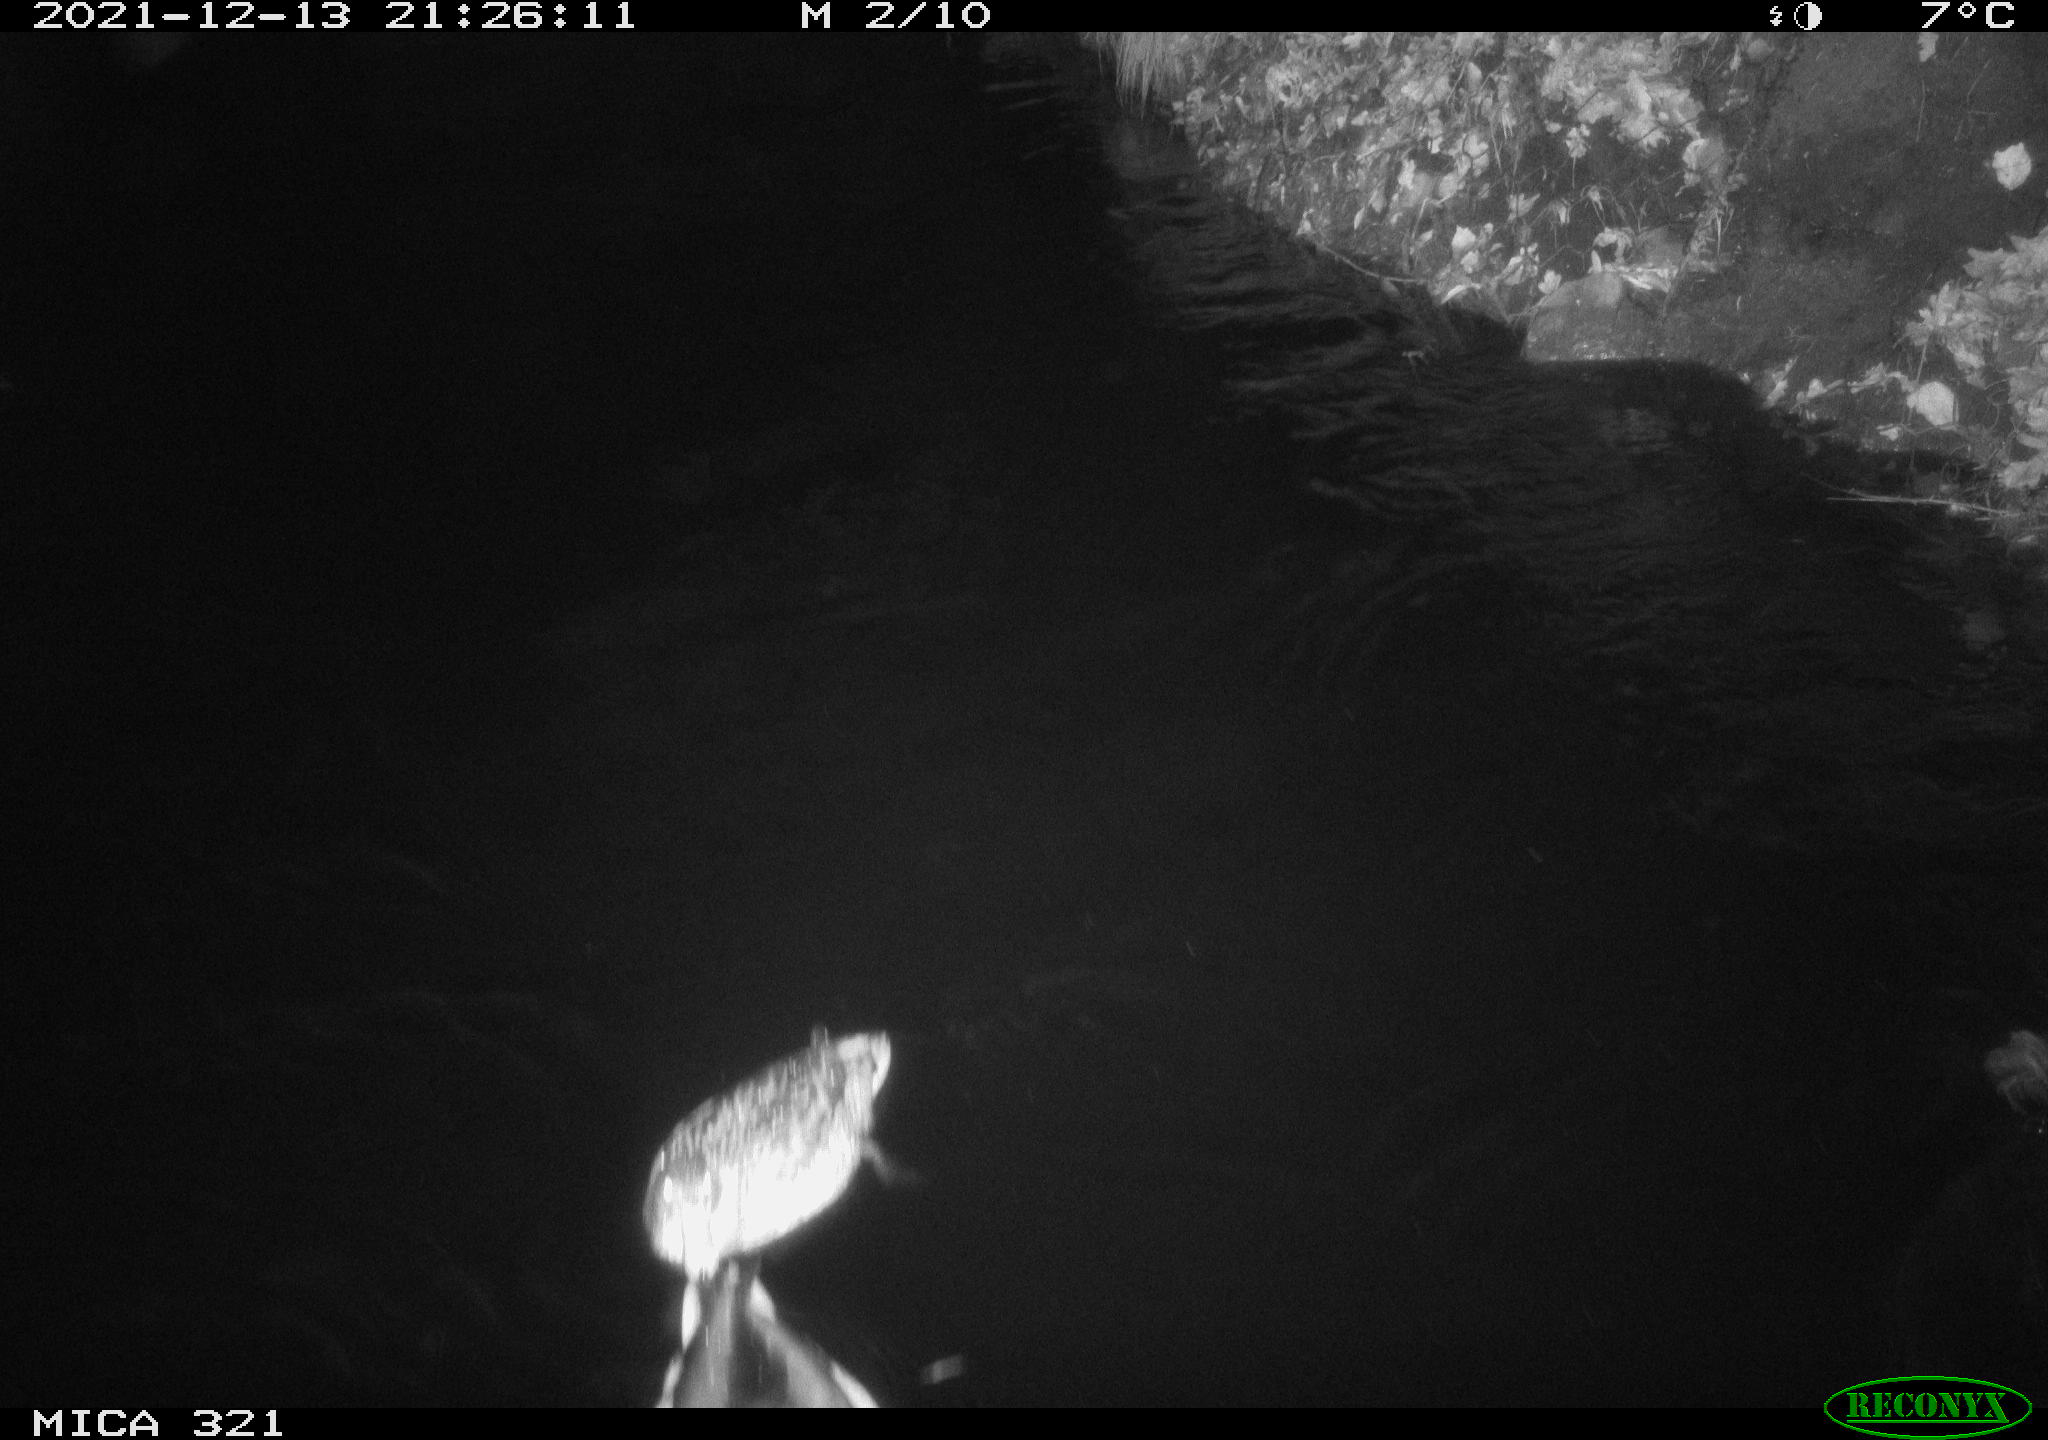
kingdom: Animalia
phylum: Chordata
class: Aves
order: Anseriformes
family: Anatidae
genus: Anas
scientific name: Anas platyrhynchos
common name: Mallard
